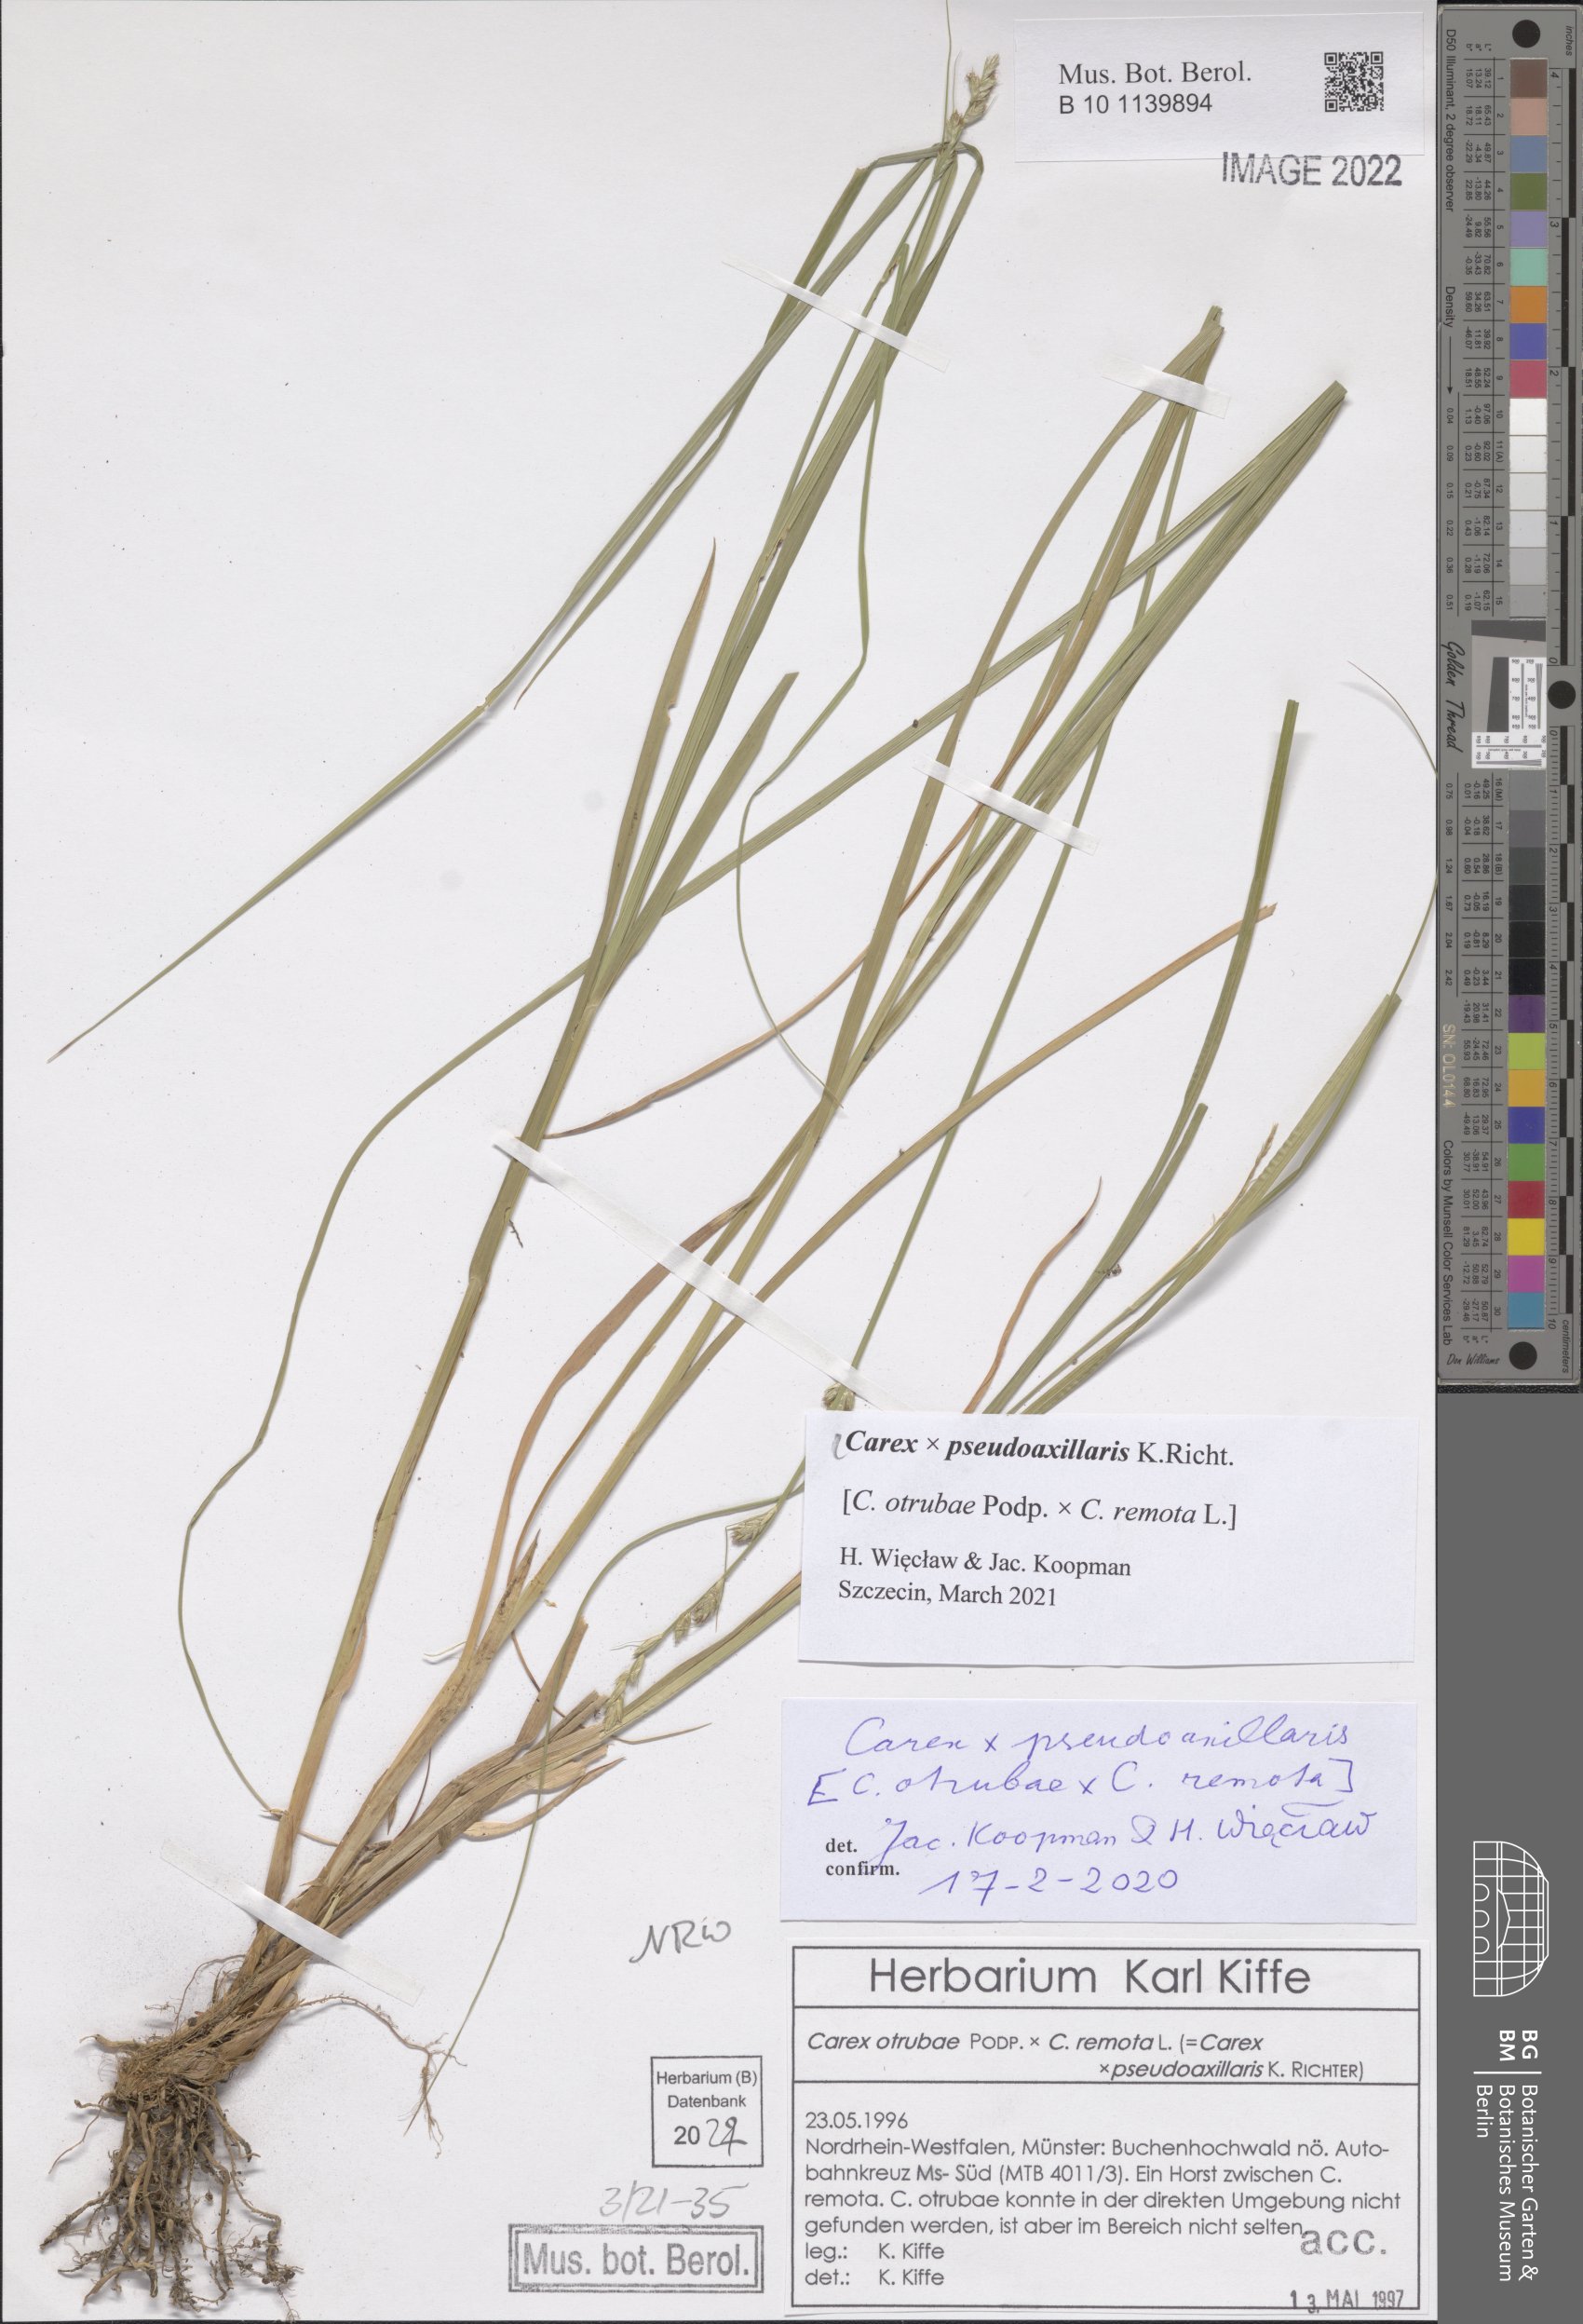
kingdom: Plantae
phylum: Tracheophyta
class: Liliopsida
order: Poales
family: Cyperaceae
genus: Carex
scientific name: Carex pseudoaxillaris
